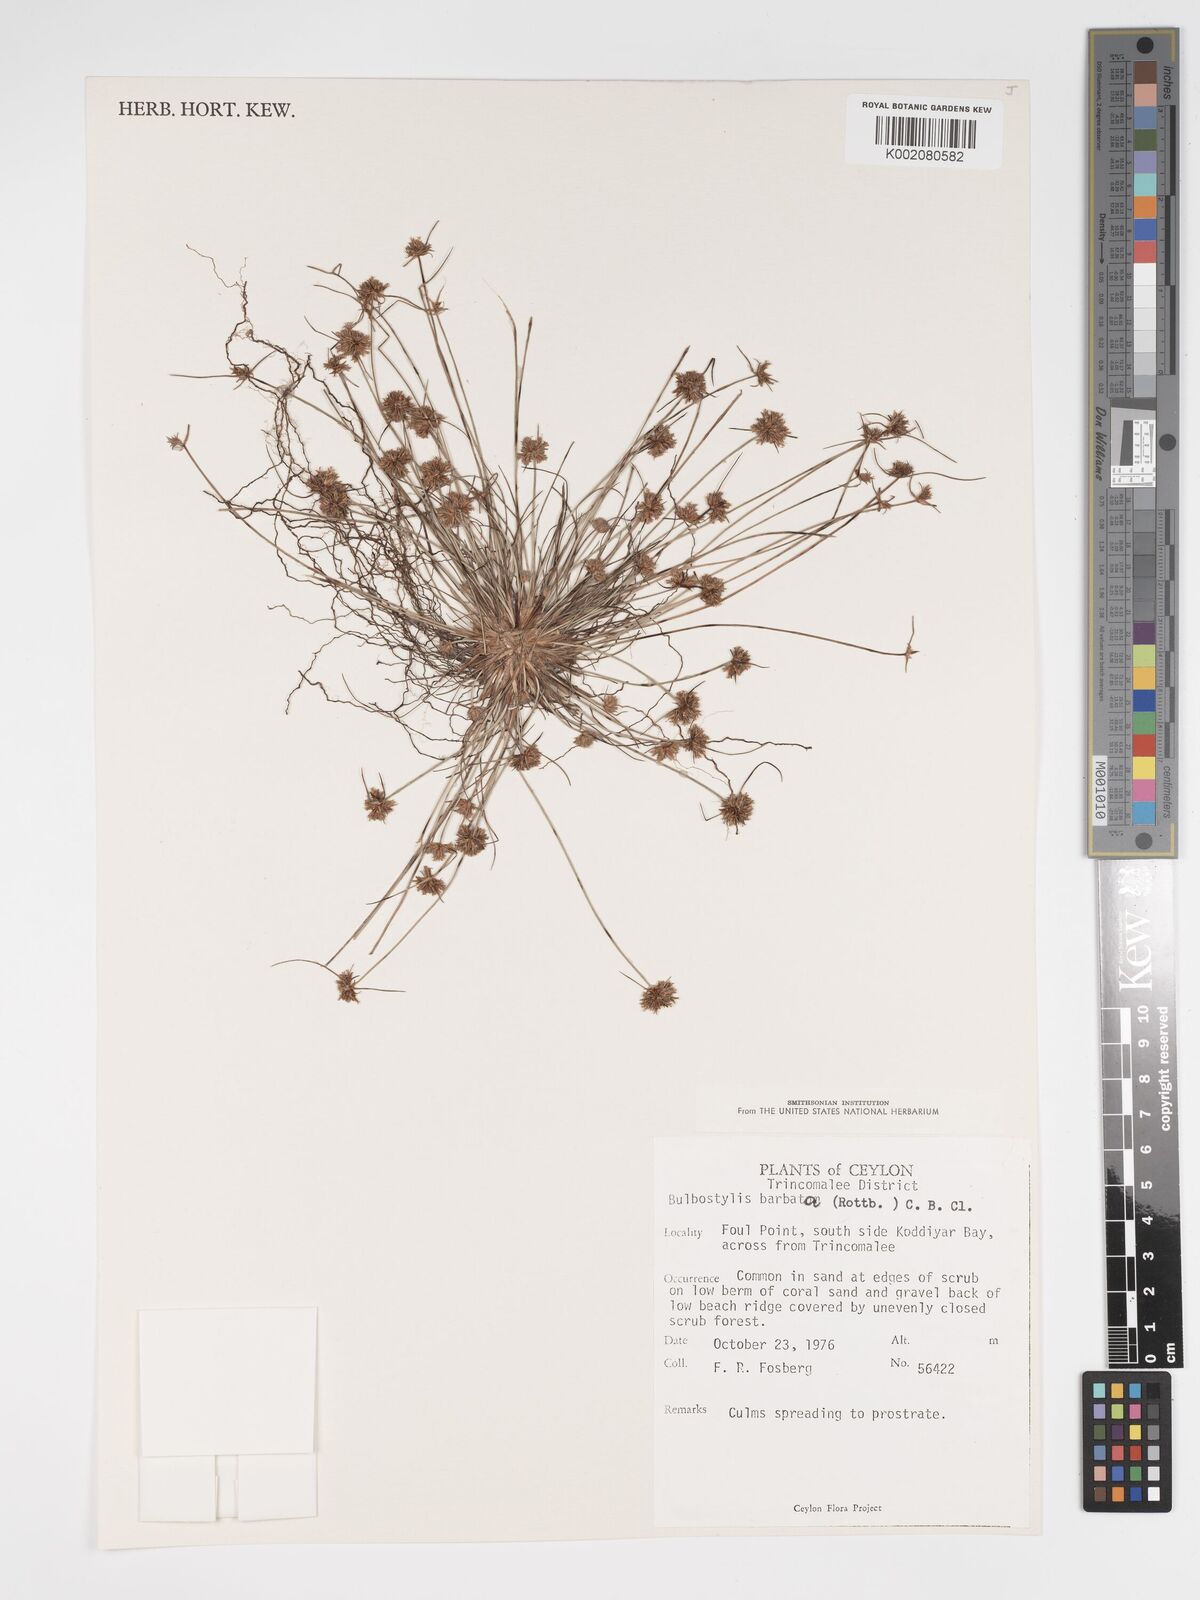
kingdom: Plantae
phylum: Tracheophyta
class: Magnoliopsida
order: Asterales
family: Asteraceae
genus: Bulbostylis
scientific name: Bulbostylis
